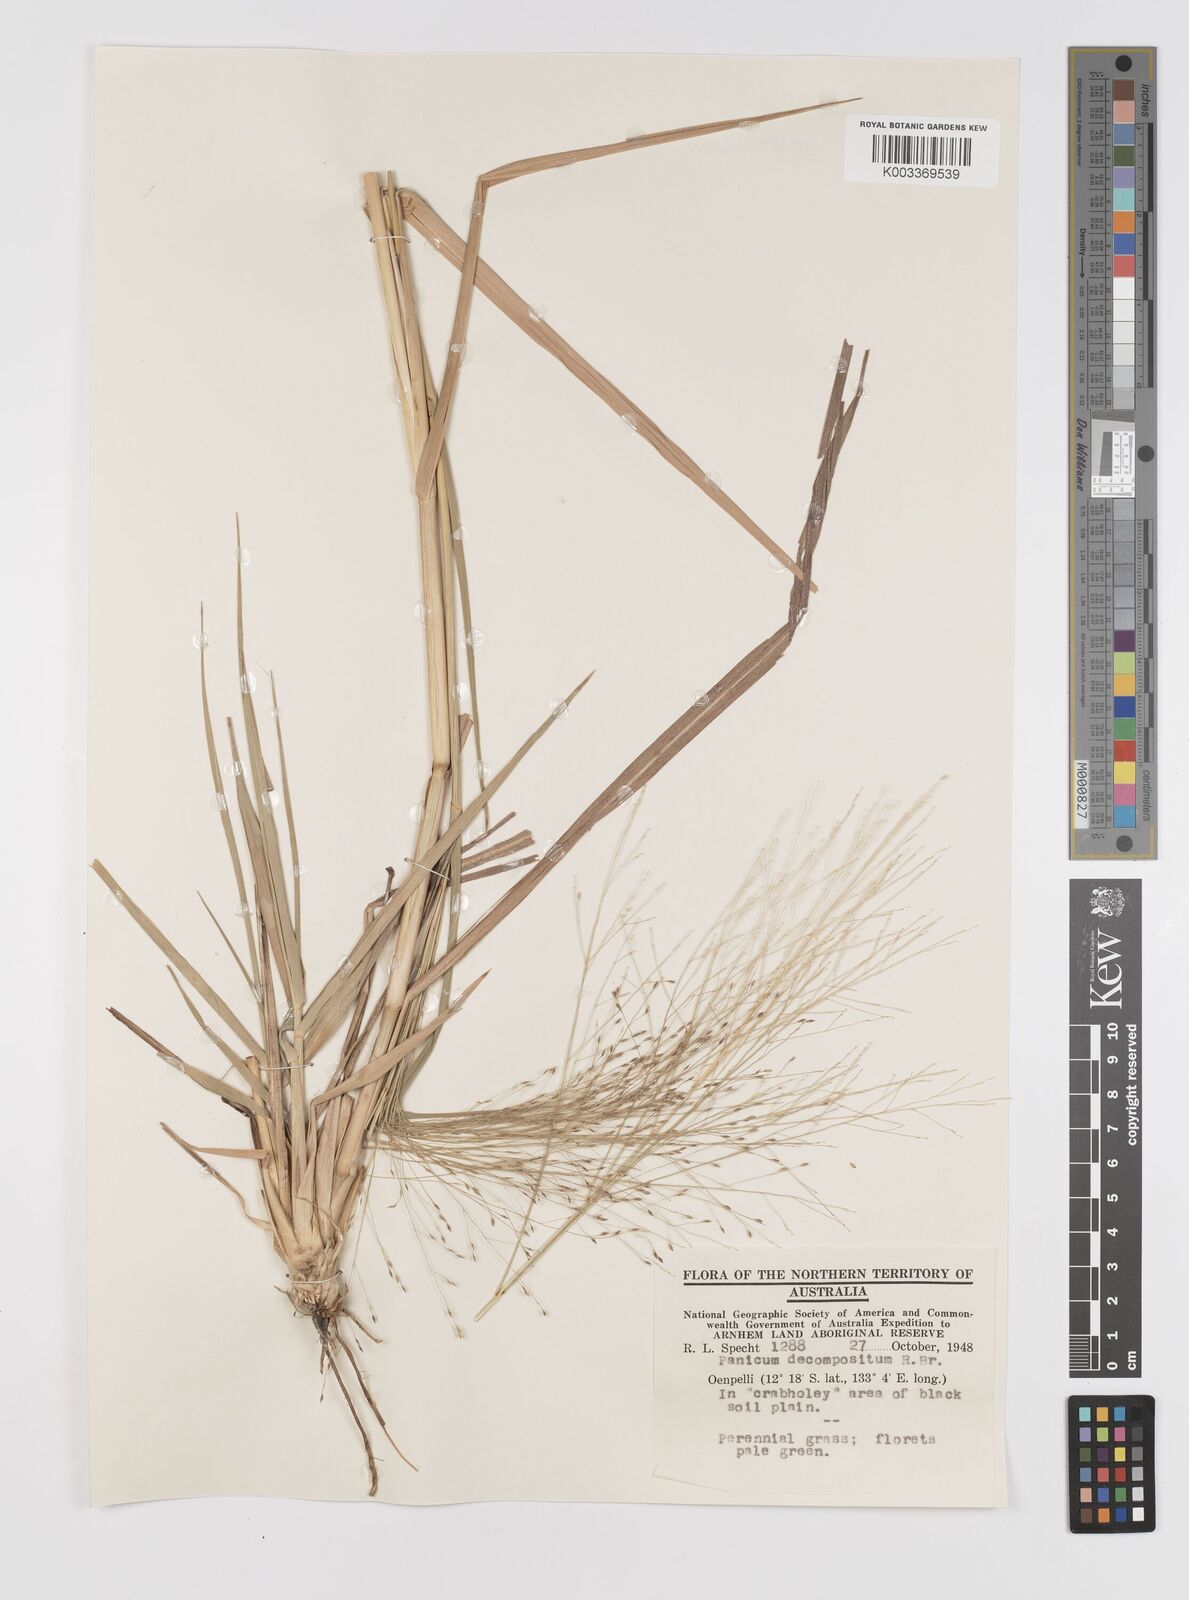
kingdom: Plantae
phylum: Tracheophyta
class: Liliopsida
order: Poales
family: Poaceae
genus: Panicum
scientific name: Panicum decompositum
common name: Australian millet
